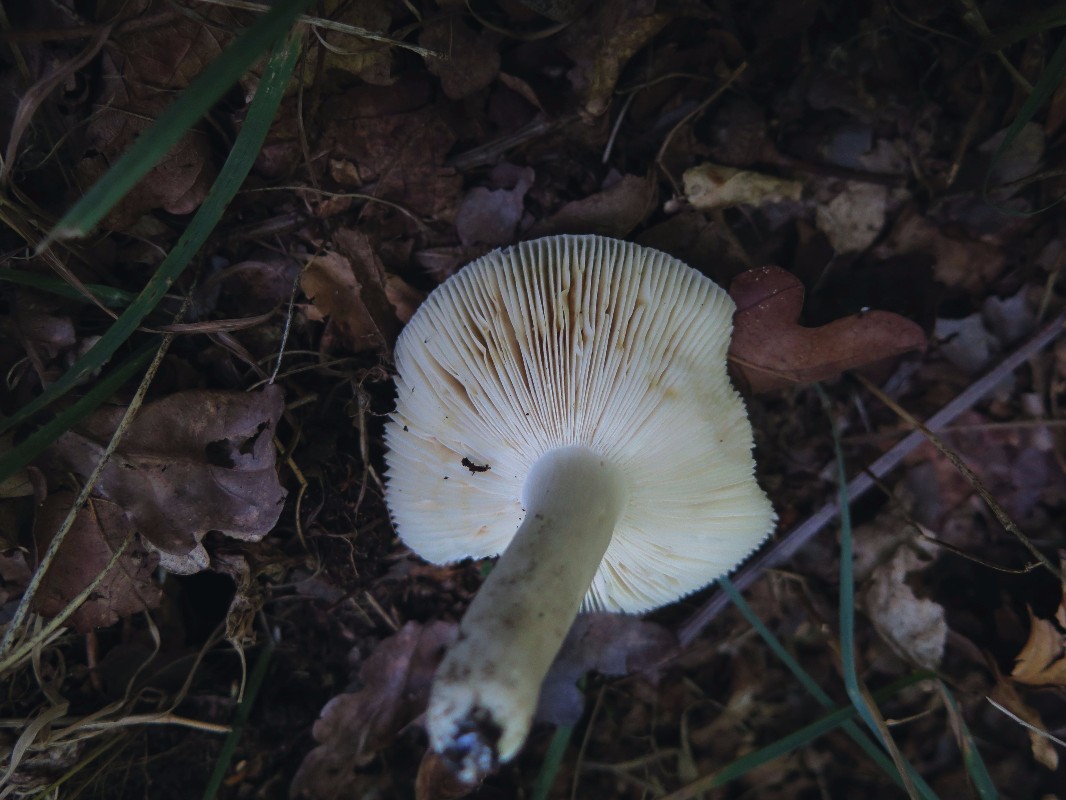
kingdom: Fungi
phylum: Basidiomycota
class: Agaricomycetes
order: Russulales
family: Russulaceae
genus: Russula
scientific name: Russula parazurea
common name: blågrå skørhat
